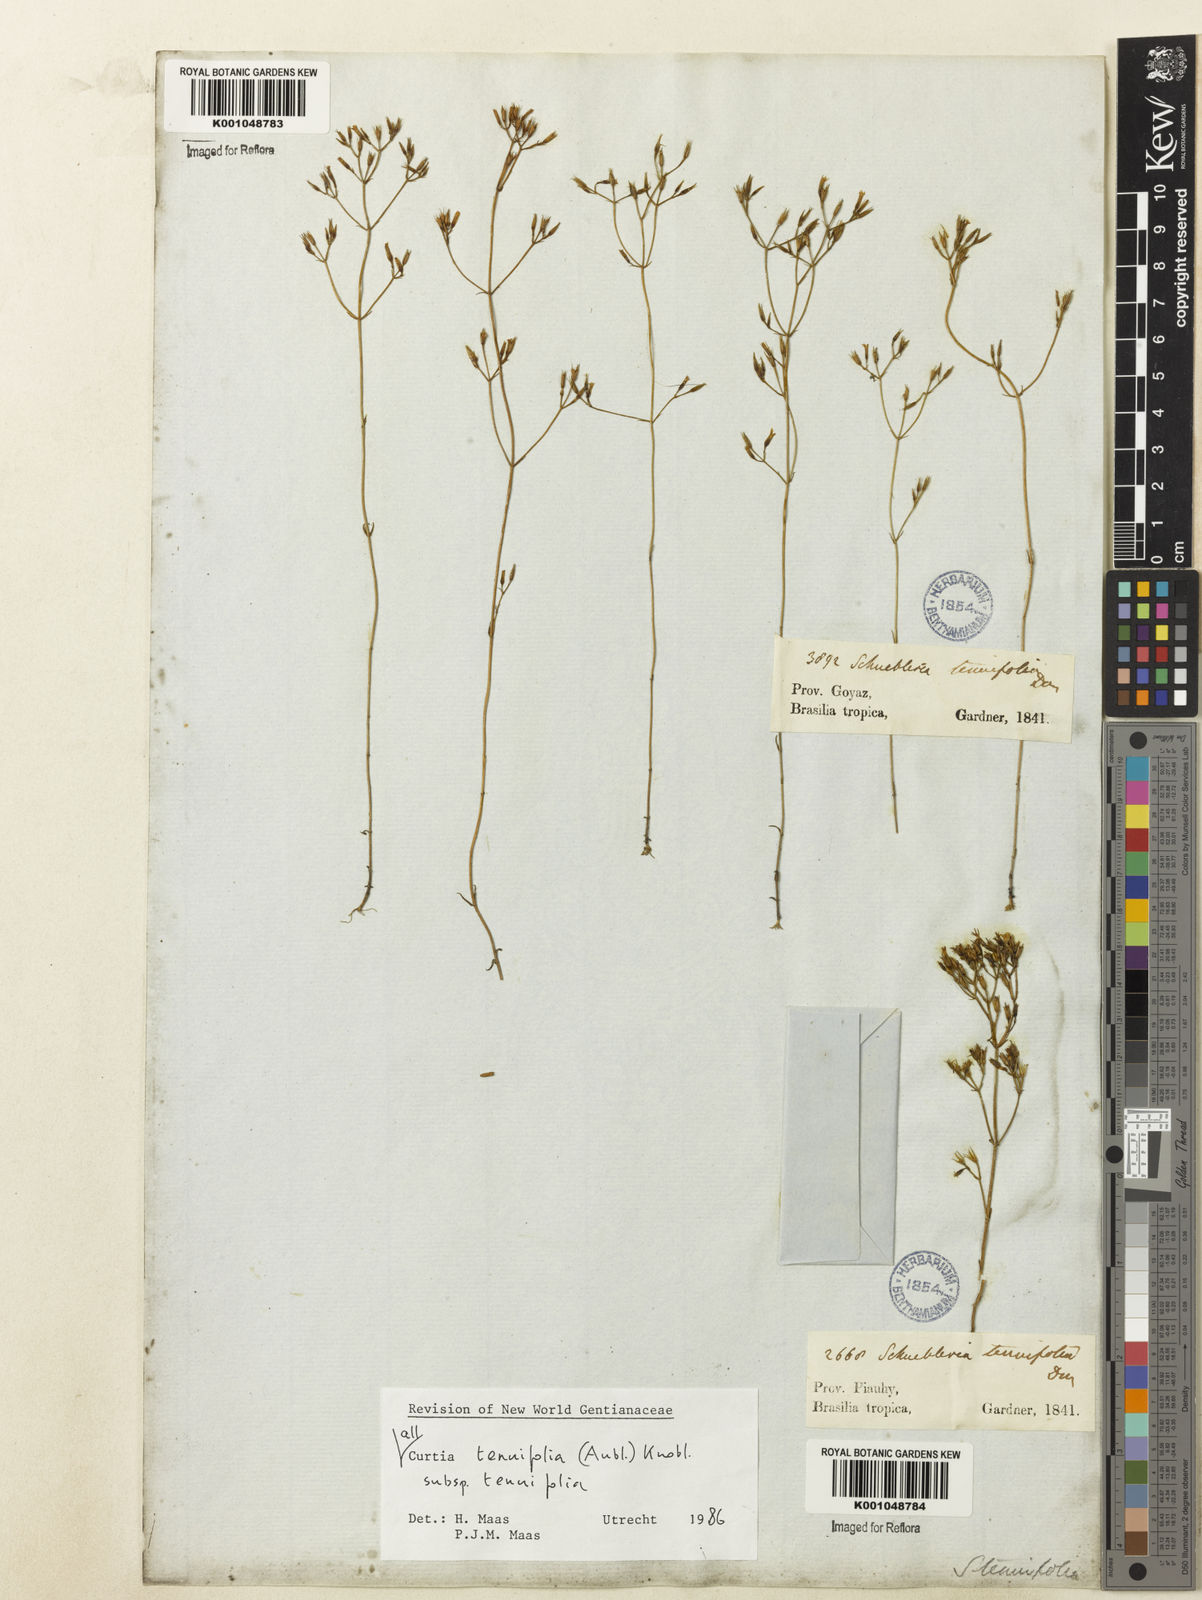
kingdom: Plantae
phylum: Tracheophyta
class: Magnoliopsida
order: Gentianales
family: Gentianaceae
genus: Curtia
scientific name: Curtia tenuifolia
